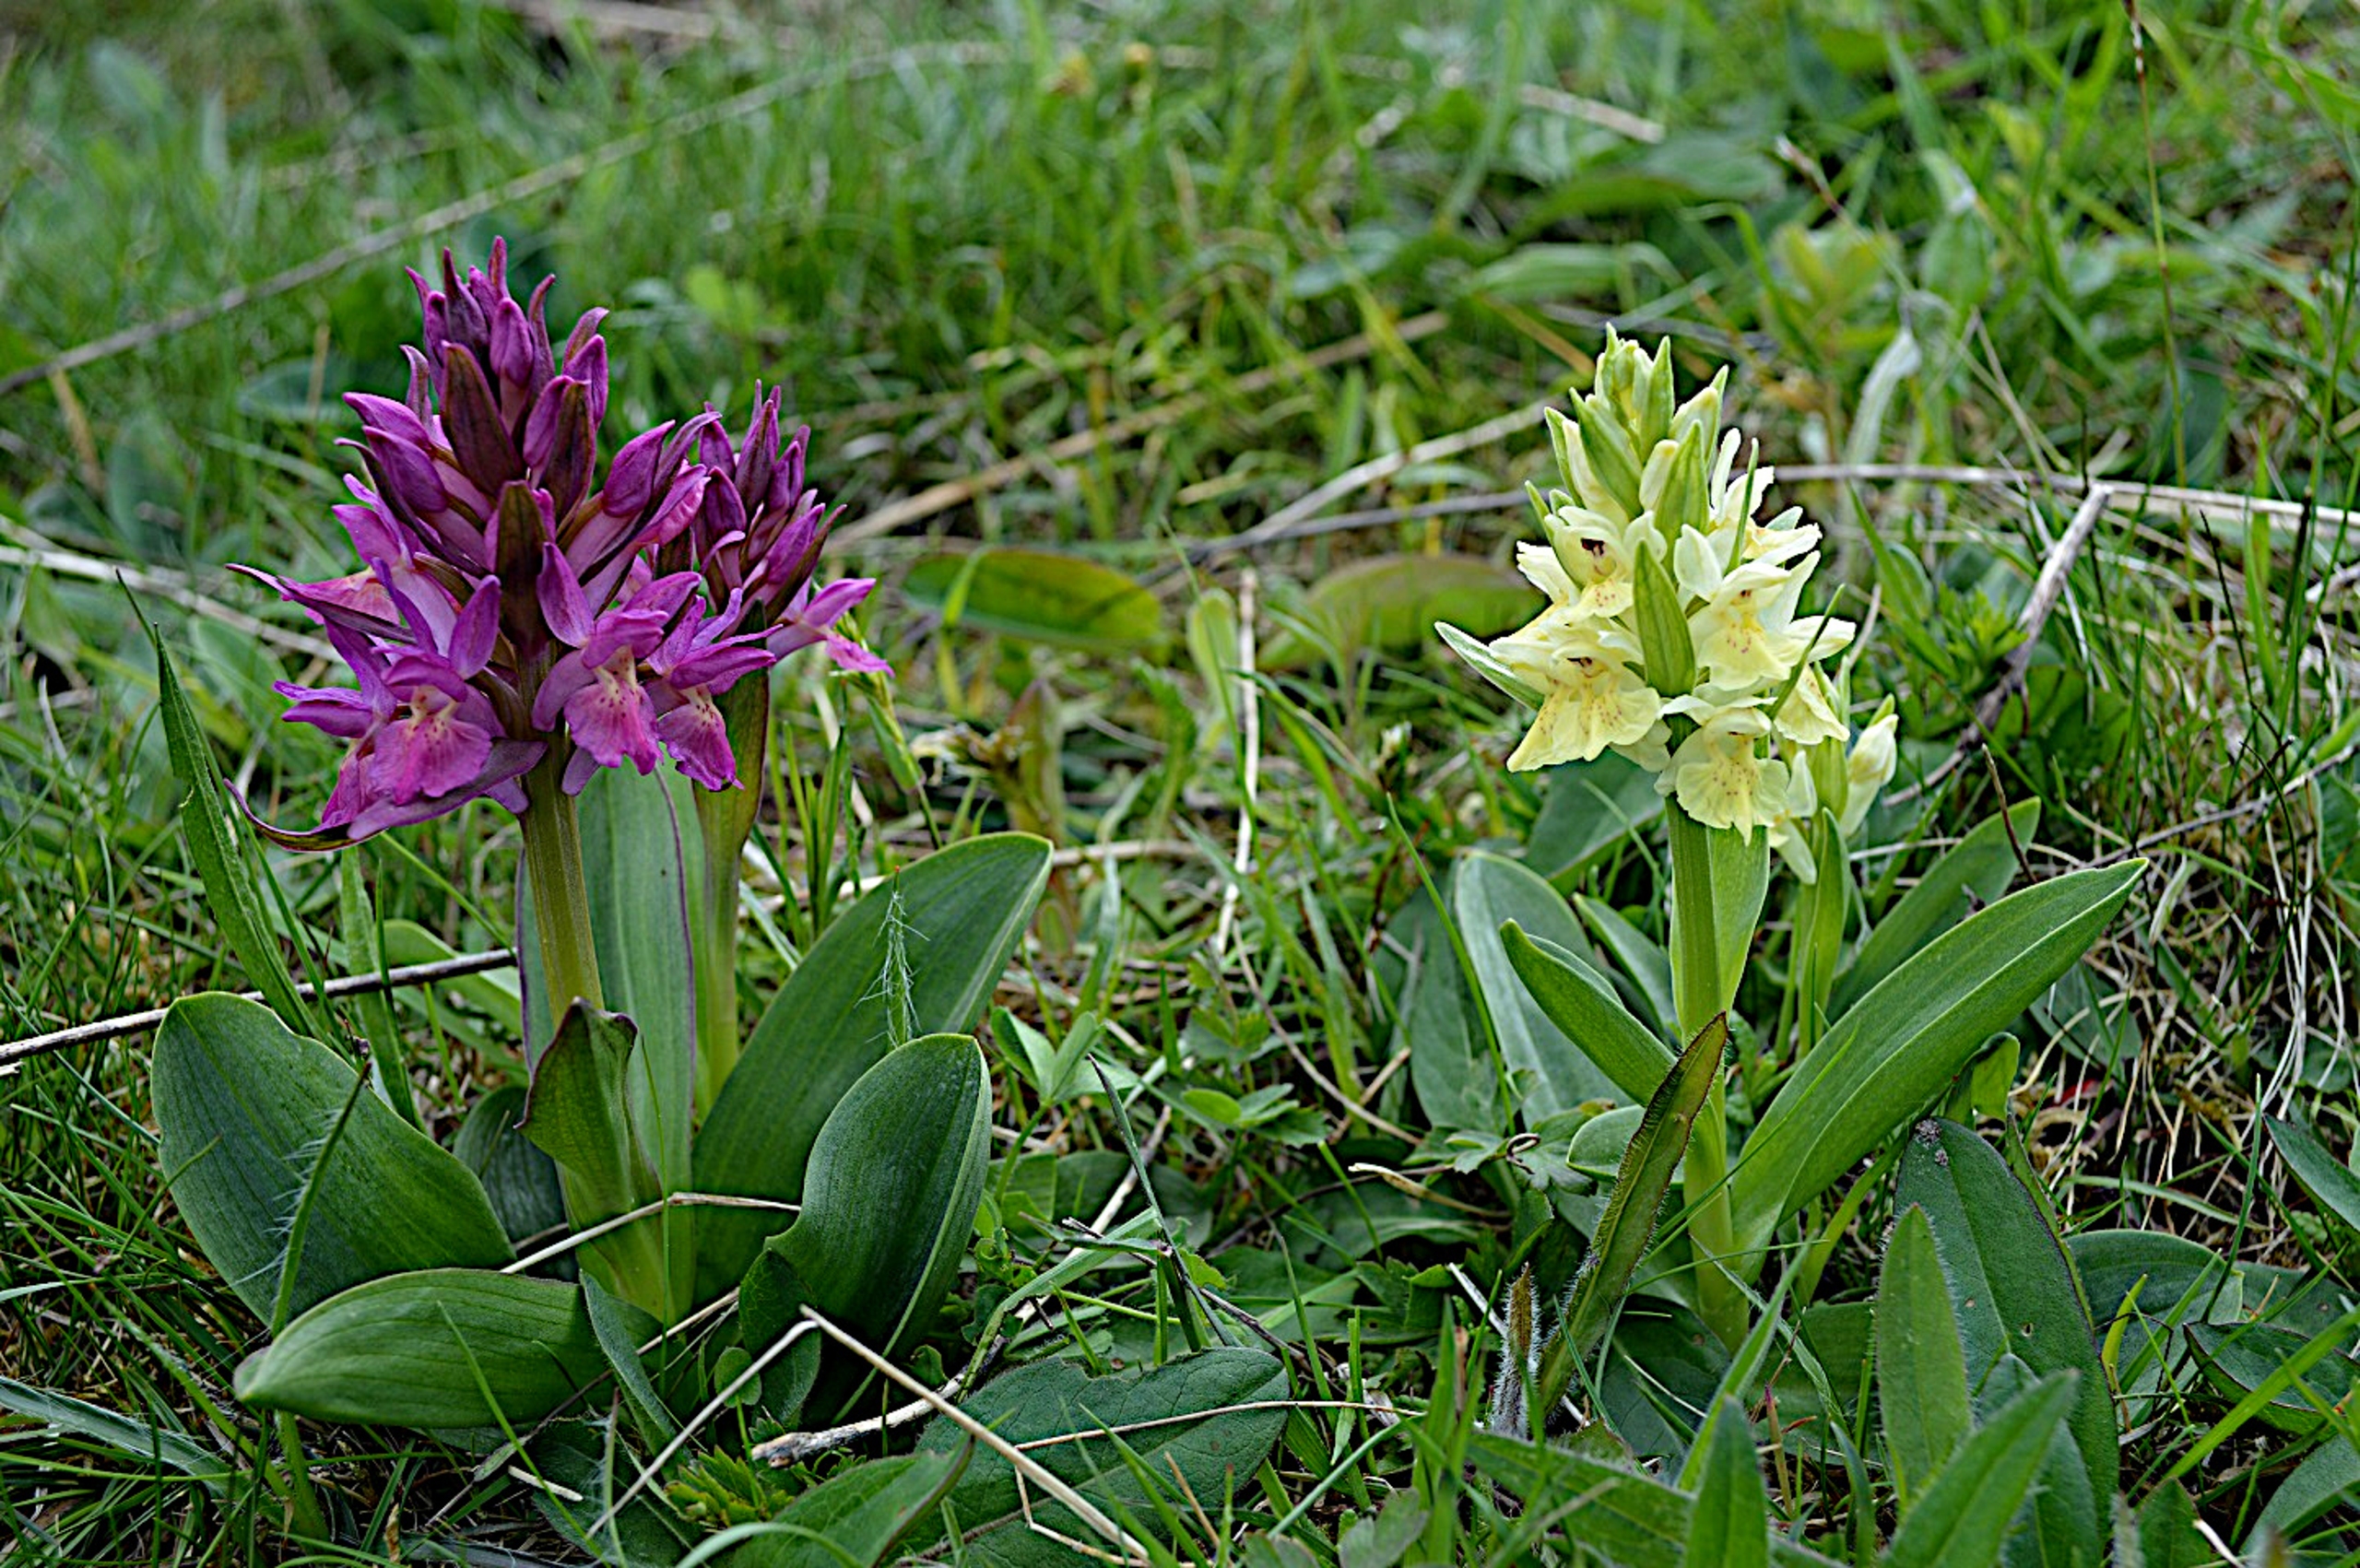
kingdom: Plantae
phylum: Tracheophyta
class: Liliopsida
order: Asparagales
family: Orchidaceae
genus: Dactylorhiza
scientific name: Dactylorhiza sambucina
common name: Hylde-gøgeurt
